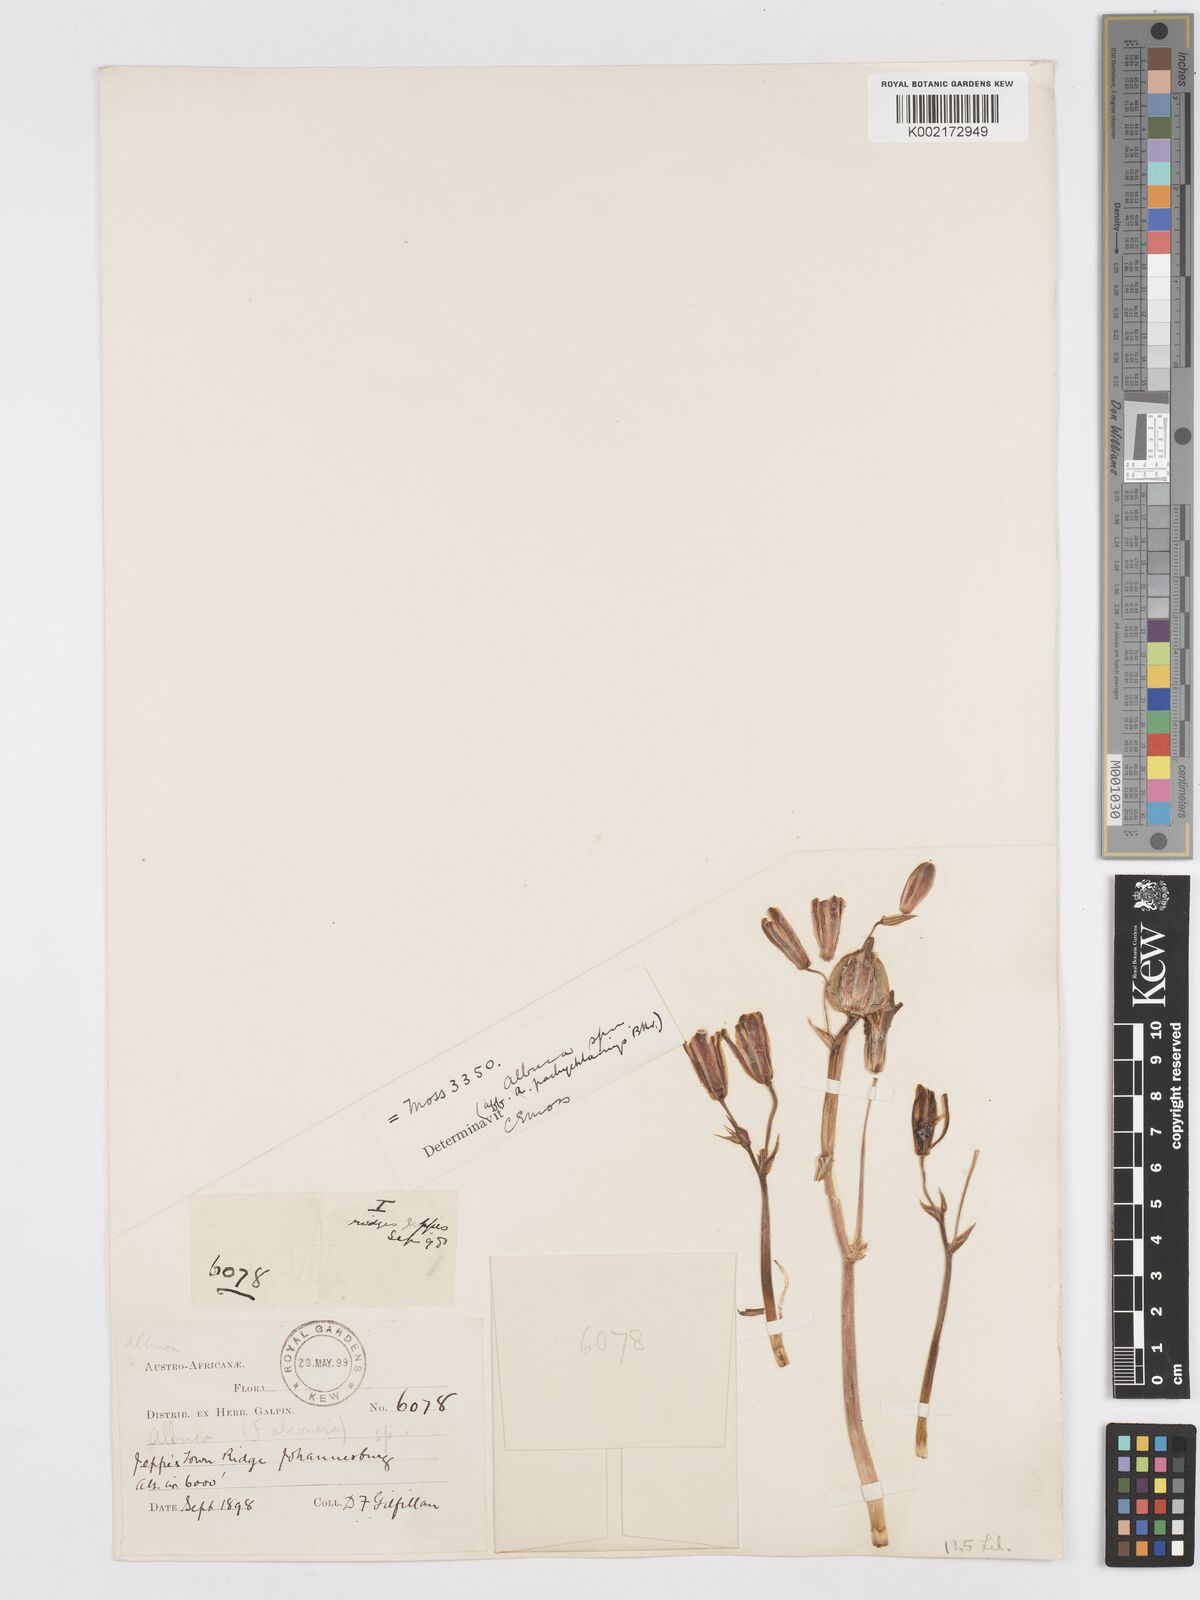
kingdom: Plantae
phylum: Tracheophyta
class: Liliopsida
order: Asparagales
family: Asparagaceae
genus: Albuca
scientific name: Albuca setosa
